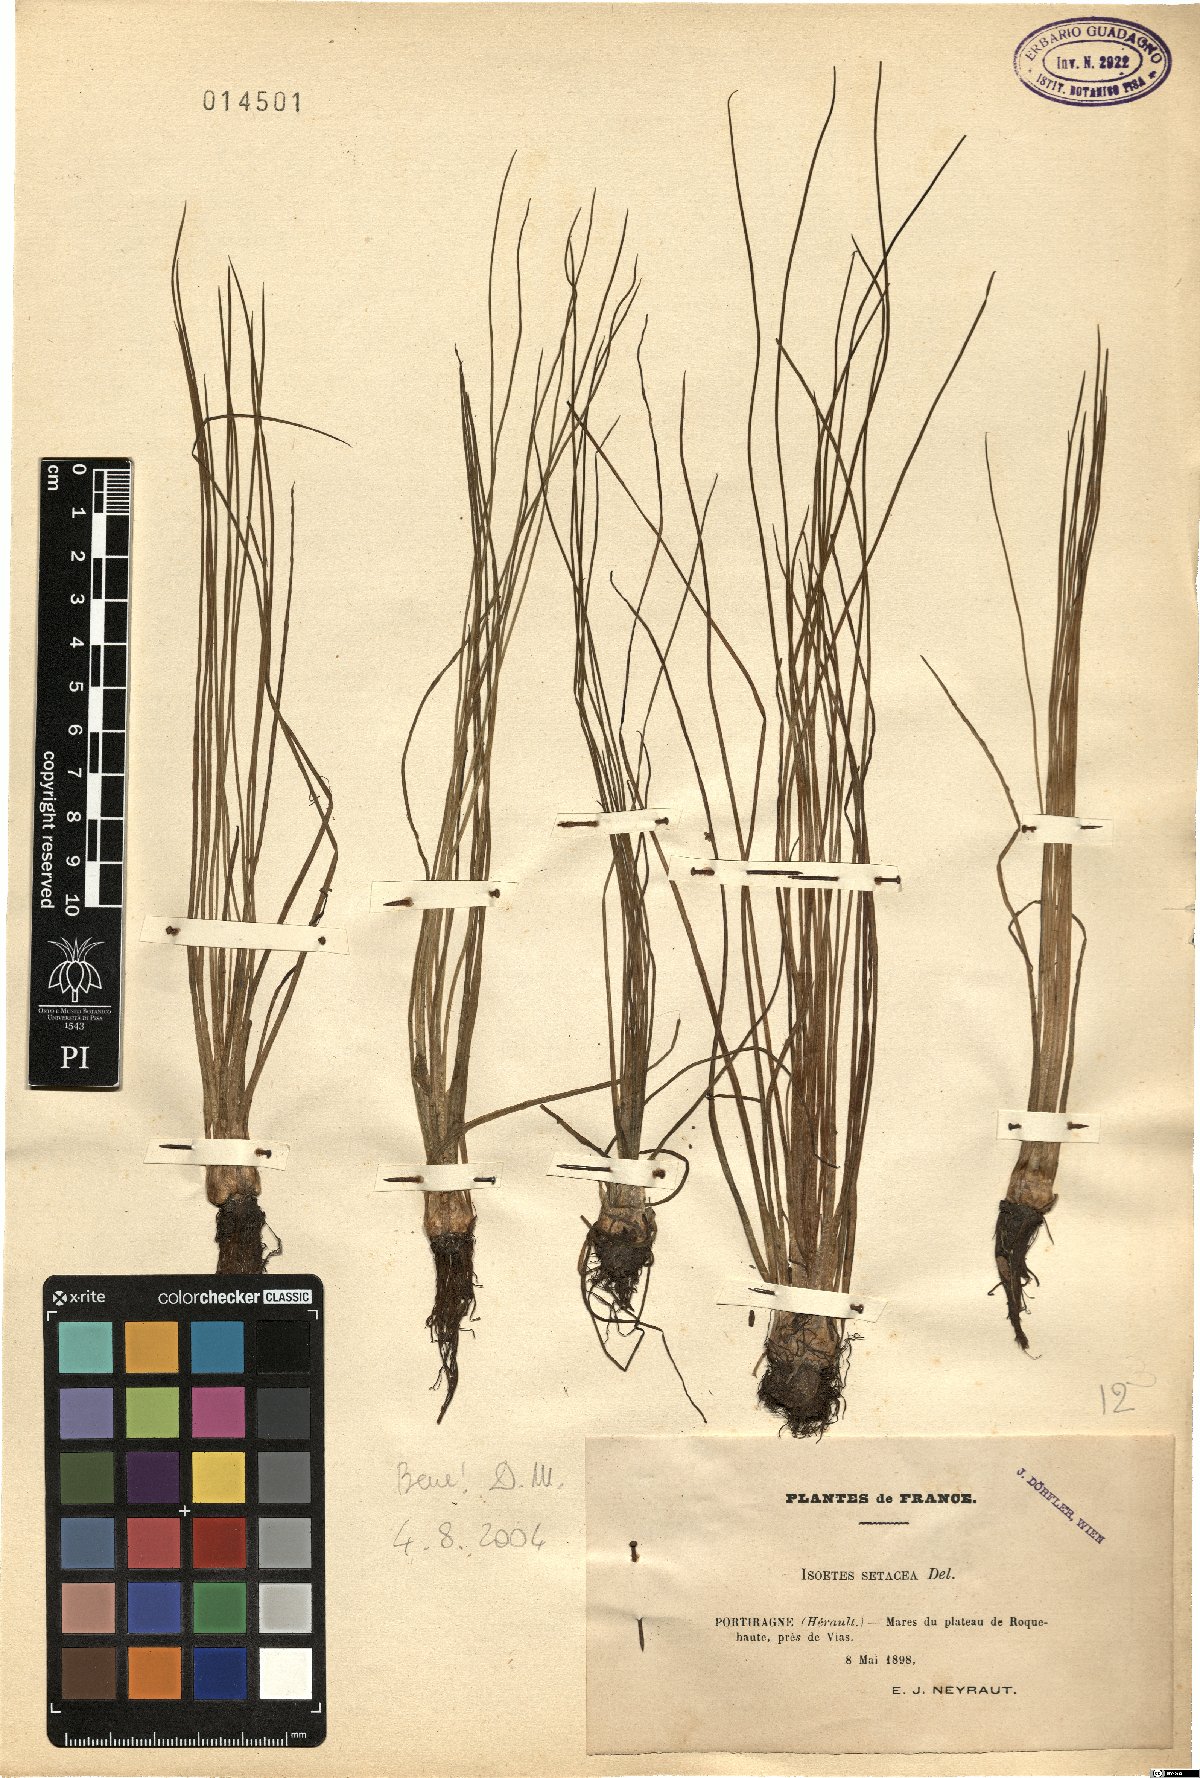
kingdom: Plantae
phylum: Tracheophyta
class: Lycopodiopsida
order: Isoetales
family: Isoetaceae
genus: Isoetes
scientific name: Isoetes lacustris
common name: Common quillwort
